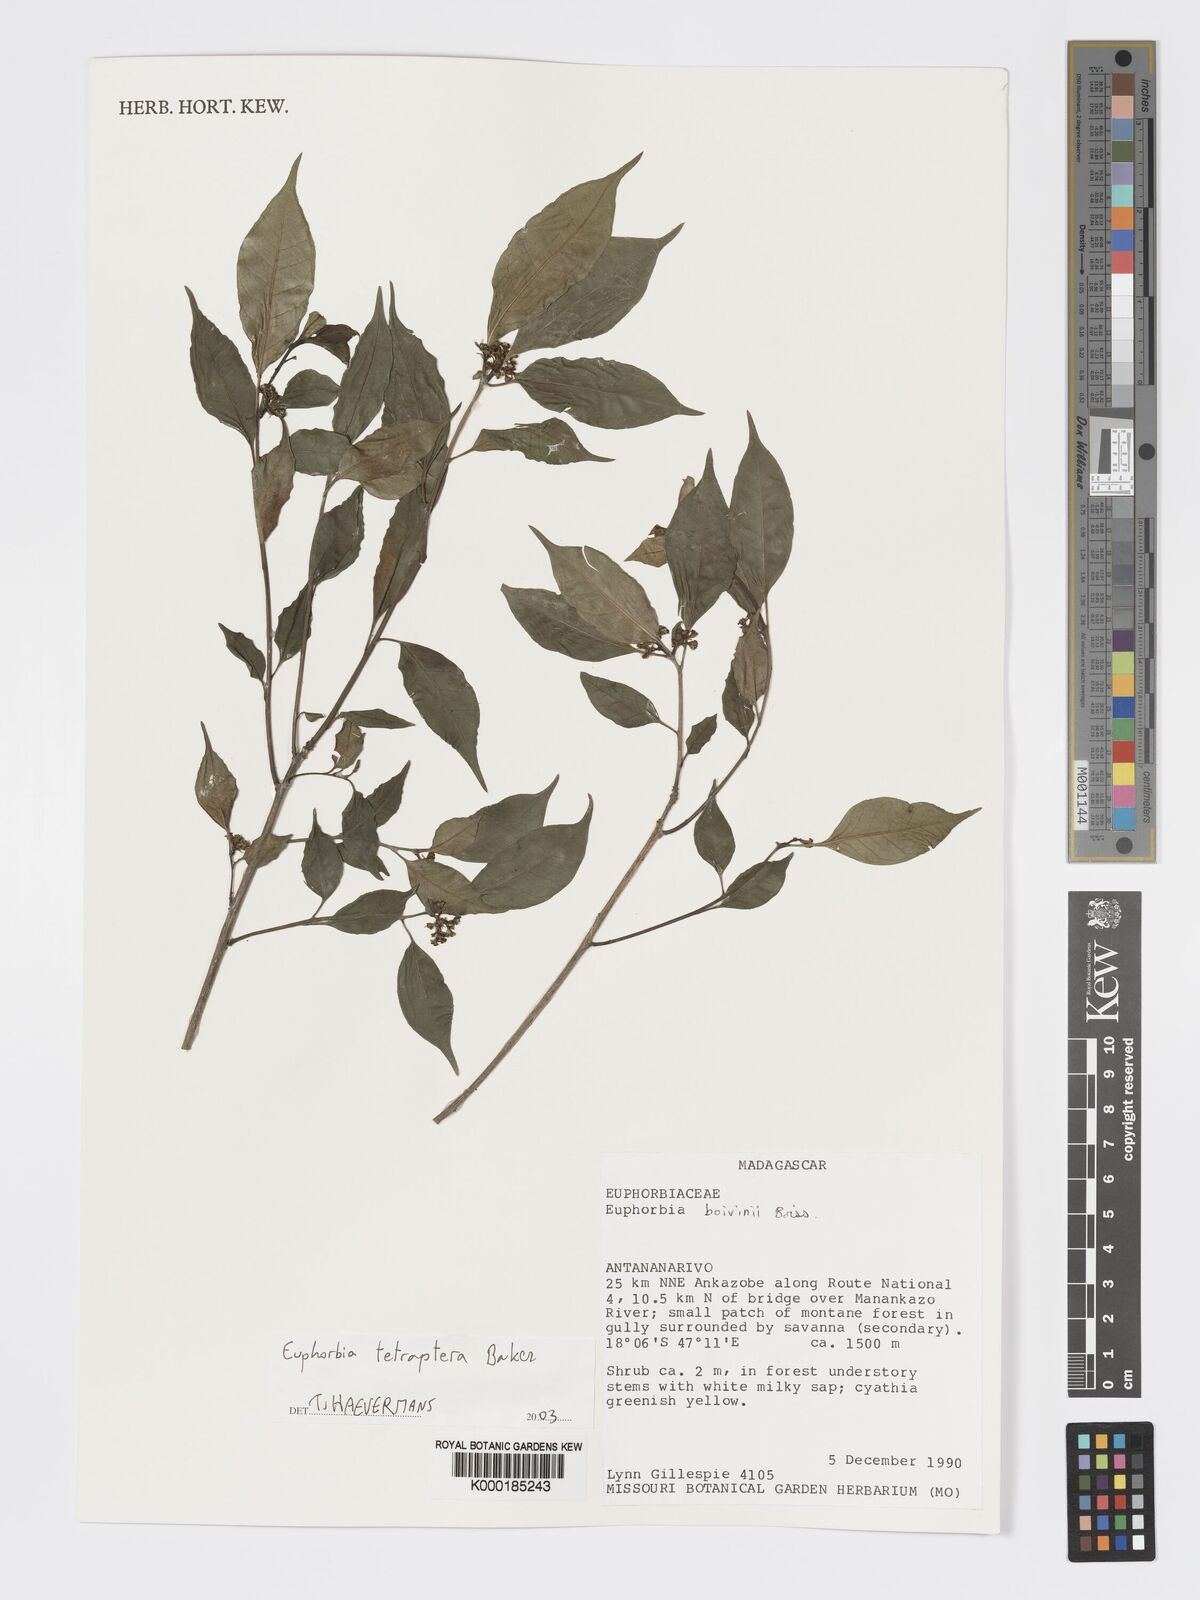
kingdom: Plantae
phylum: Tracheophyta
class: Magnoliopsida
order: Malpighiales
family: Euphorbiaceae
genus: Euphorbia
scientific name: Euphorbia tetraptera
